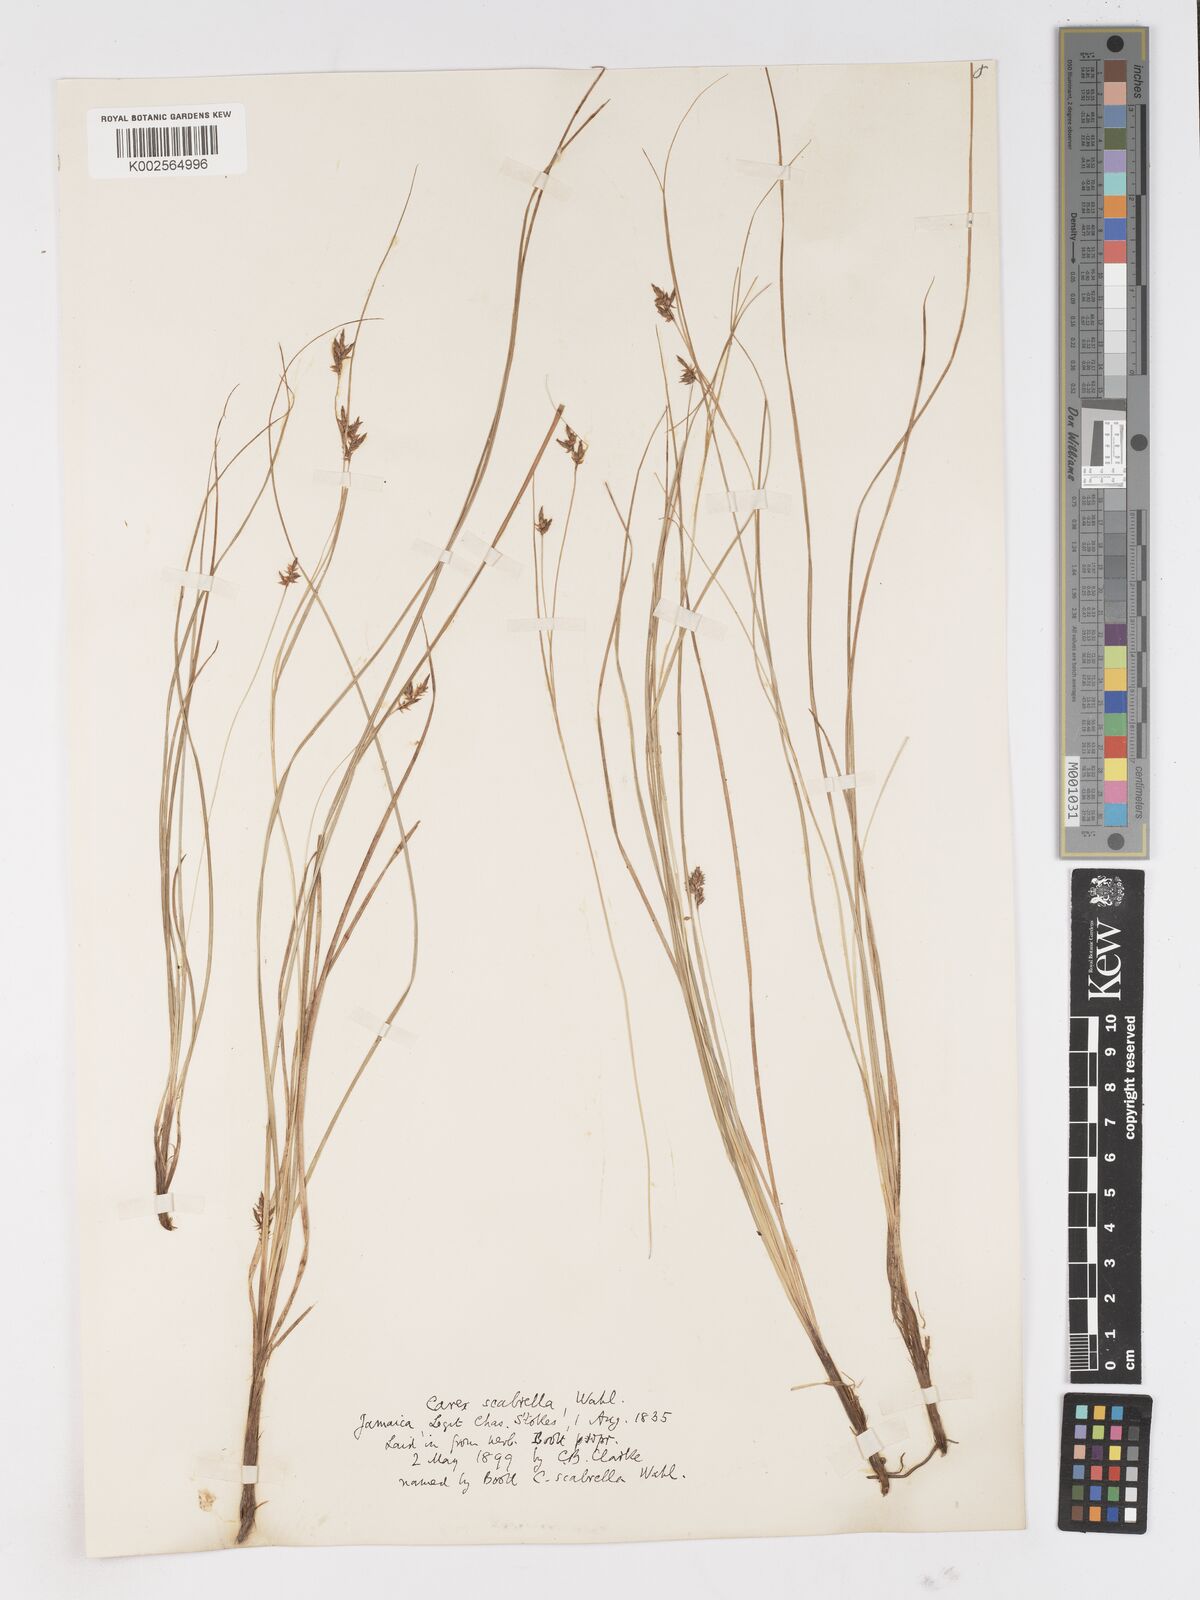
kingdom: Plantae
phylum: Tracheophyta
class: Liliopsida
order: Poales
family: Cyperaceae
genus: Carex
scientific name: Carex
